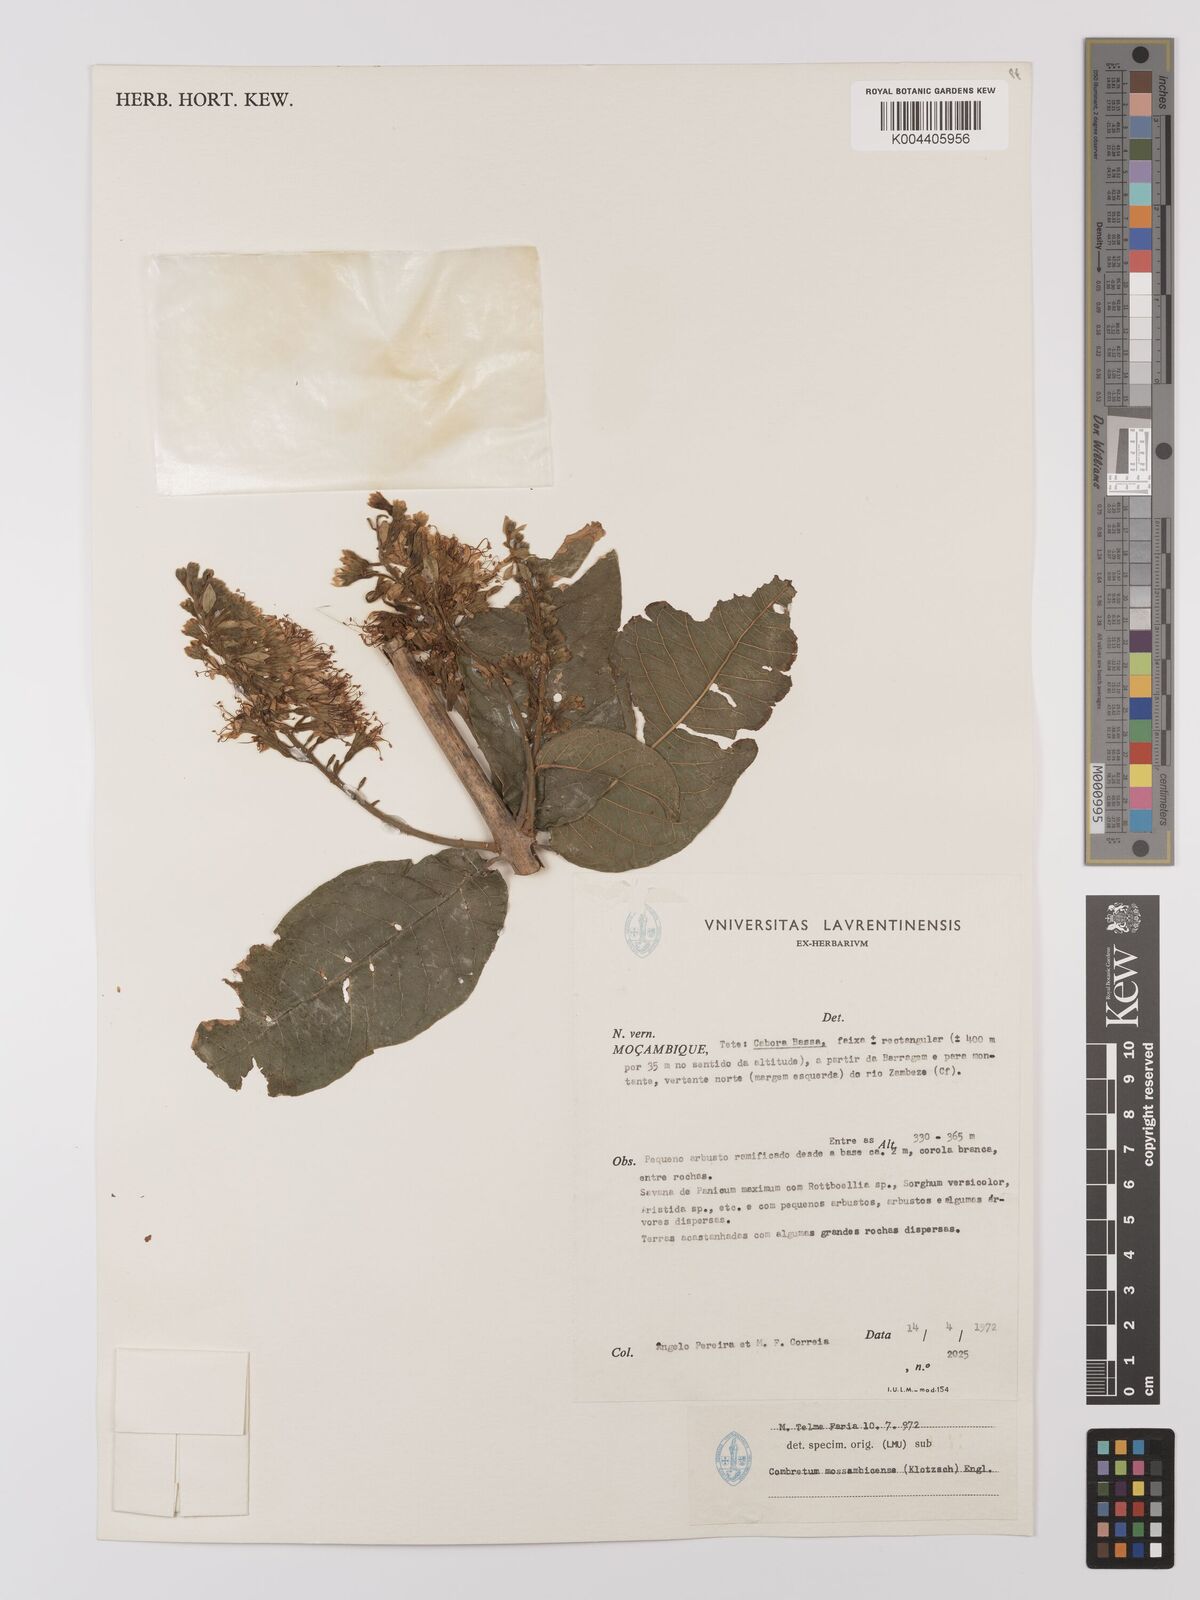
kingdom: Plantae
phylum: Tracheophyta
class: Magnoliopsida
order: Myrtales
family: Combretaceae
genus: Combretum
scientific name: Combretum mossambicense
